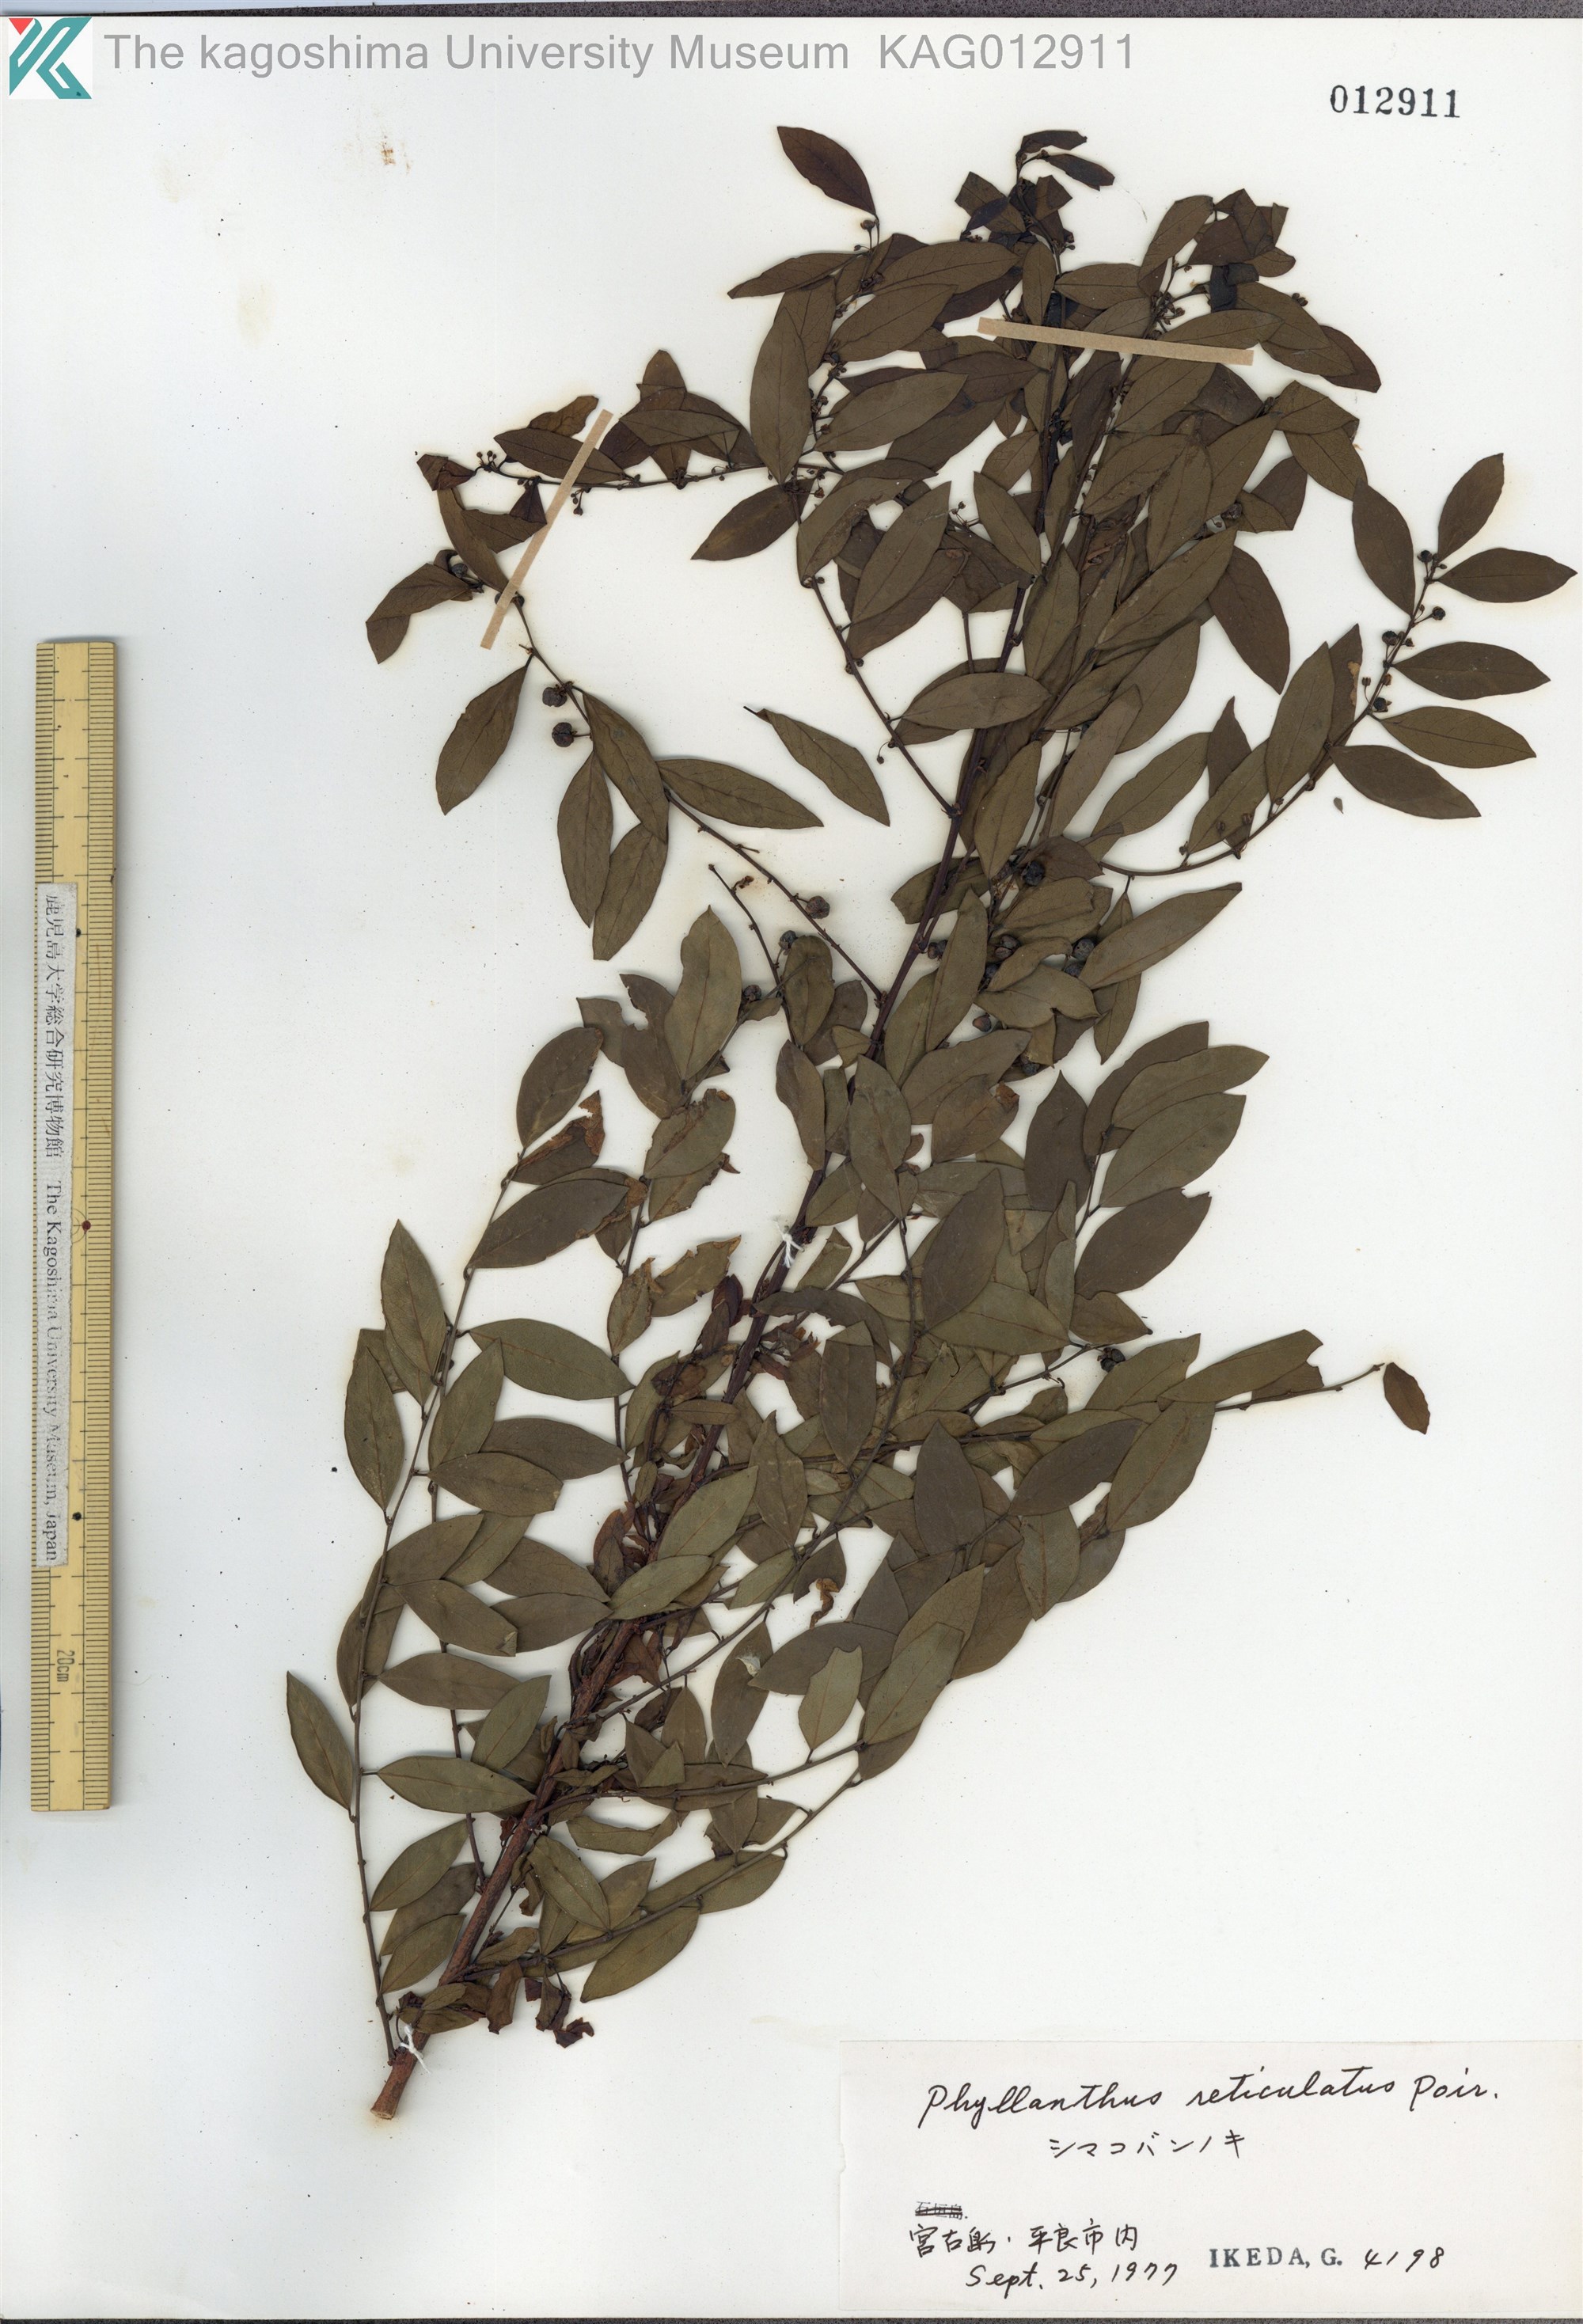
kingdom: Plantae
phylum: Tracheophyta
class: Magnoliopsida
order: Malpighiales
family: Phyllanthaceae
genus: Phyllanthus
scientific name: Phyllanthus reticulatus
